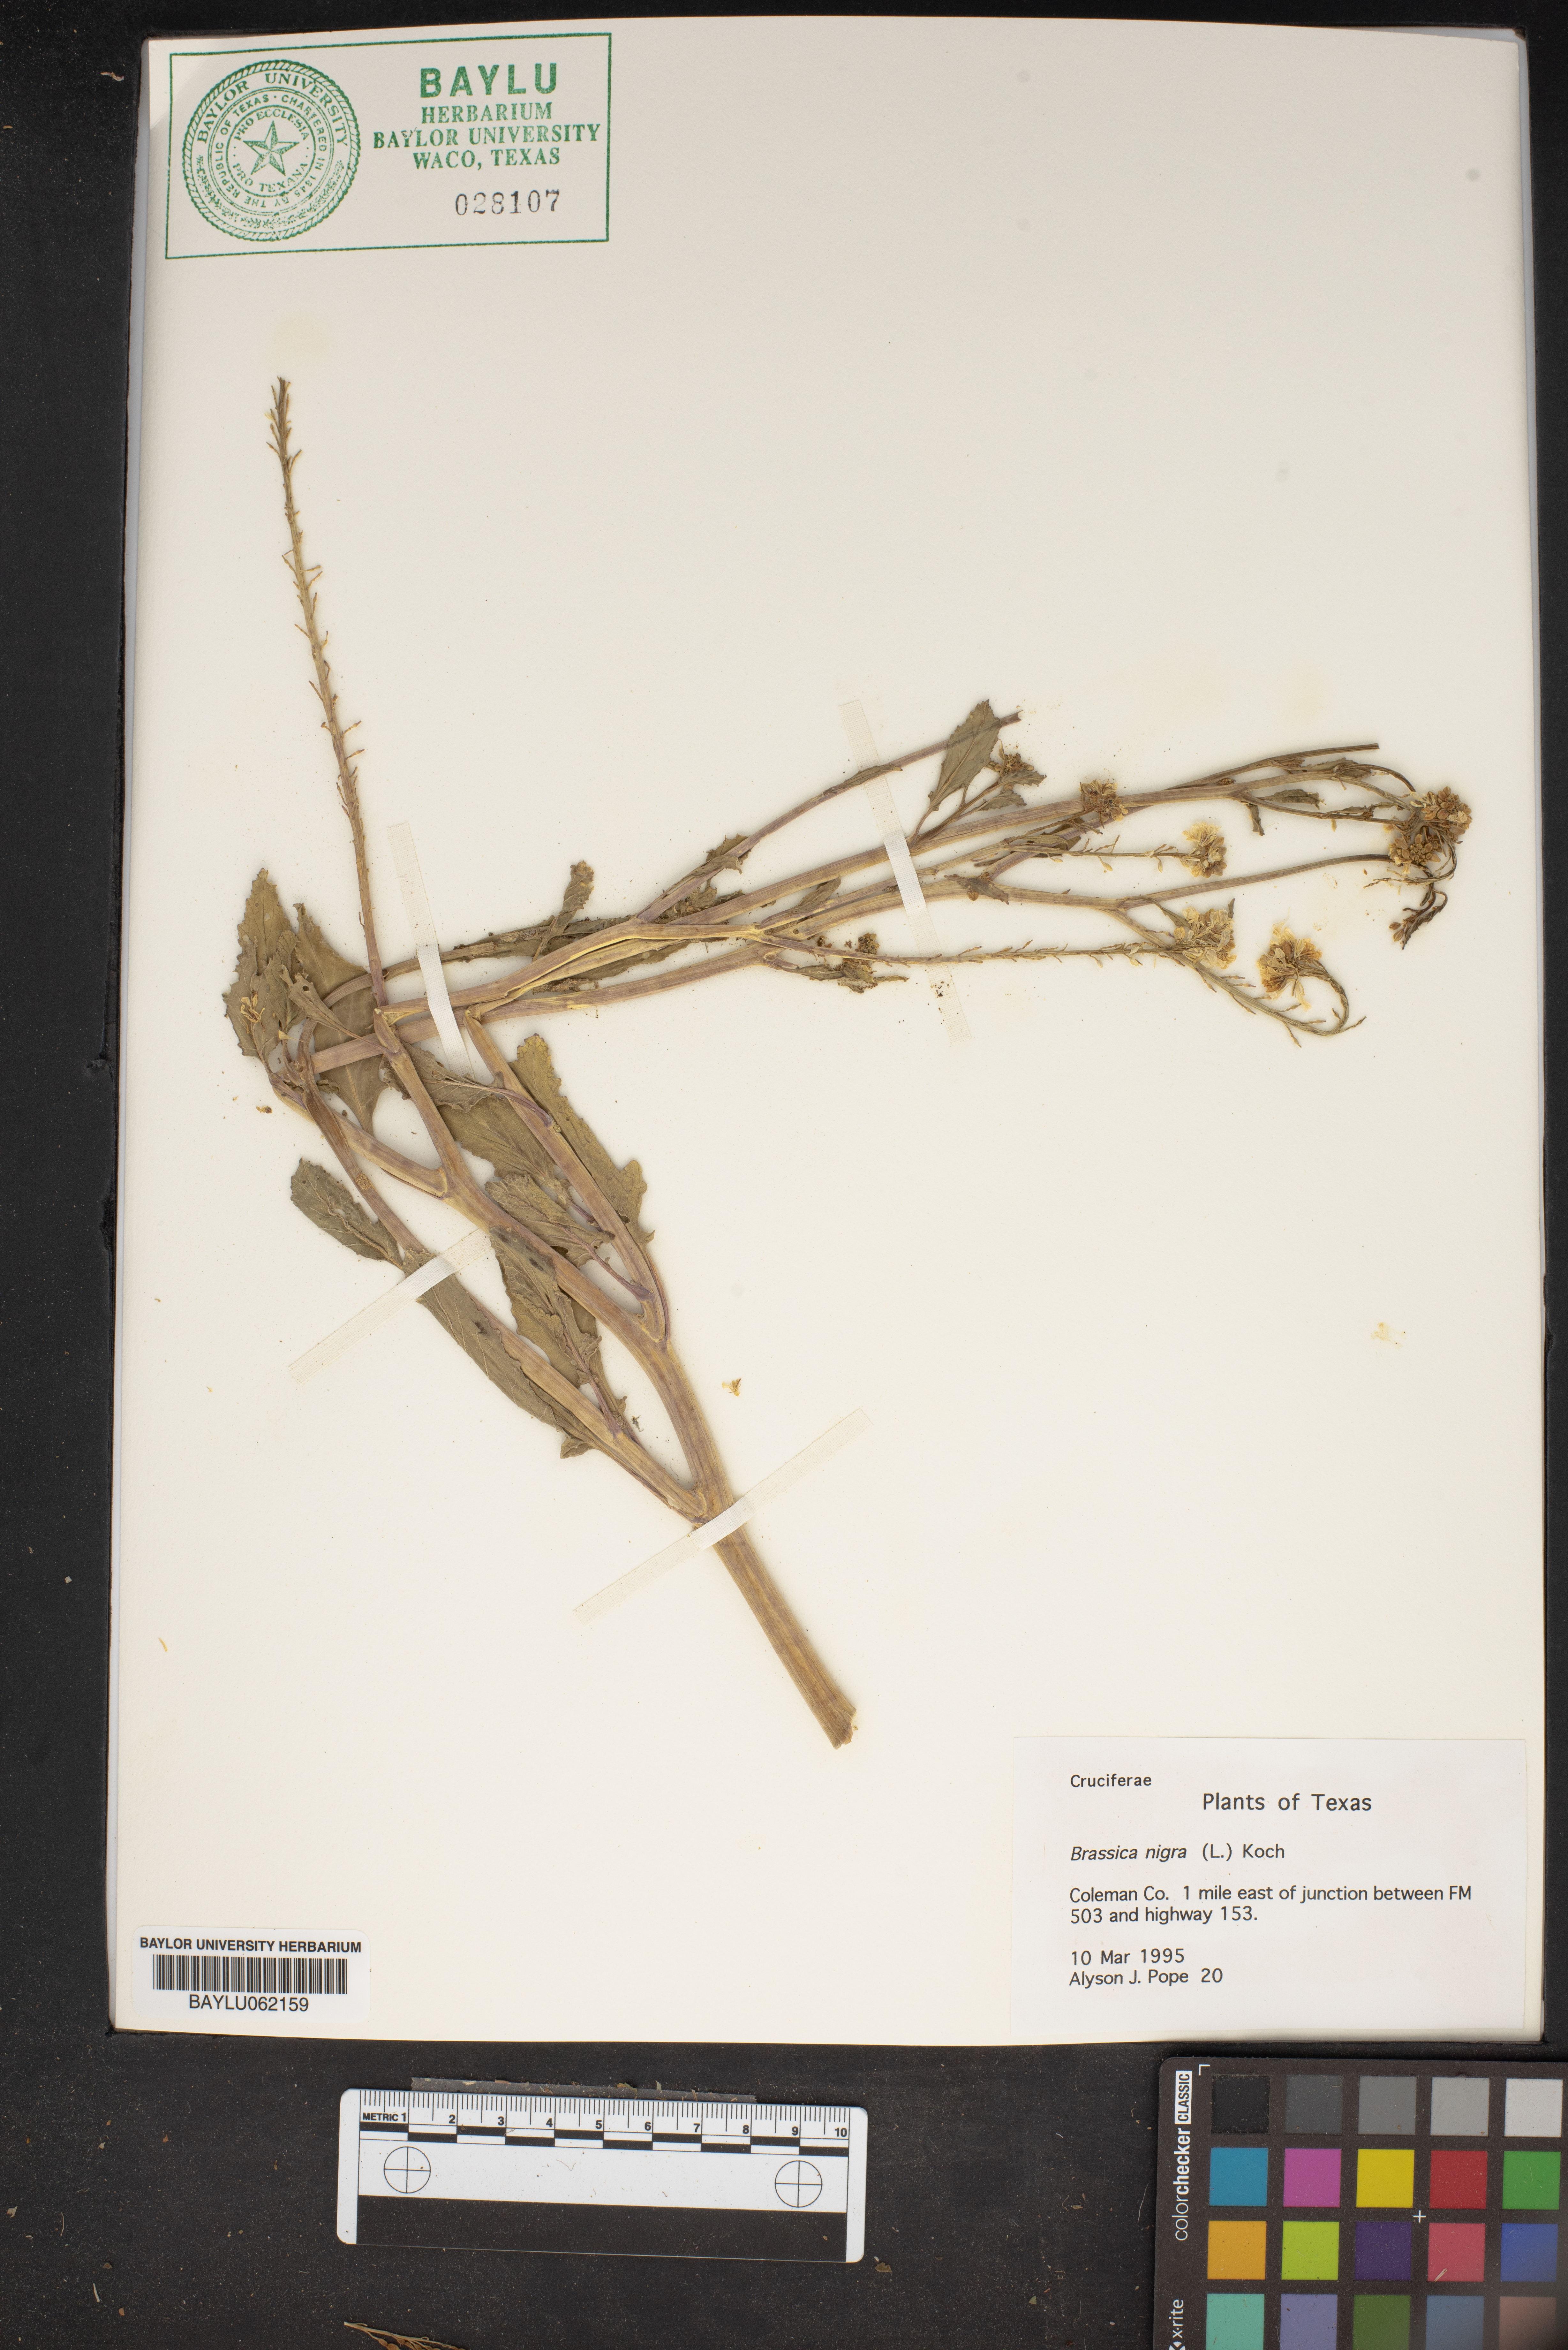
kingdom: Plantae
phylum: Tracheophyta
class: Magnoliopsida
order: Brassicales
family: Brassicaceae
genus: Brassica
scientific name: Brassica nigra
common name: Black mustard
